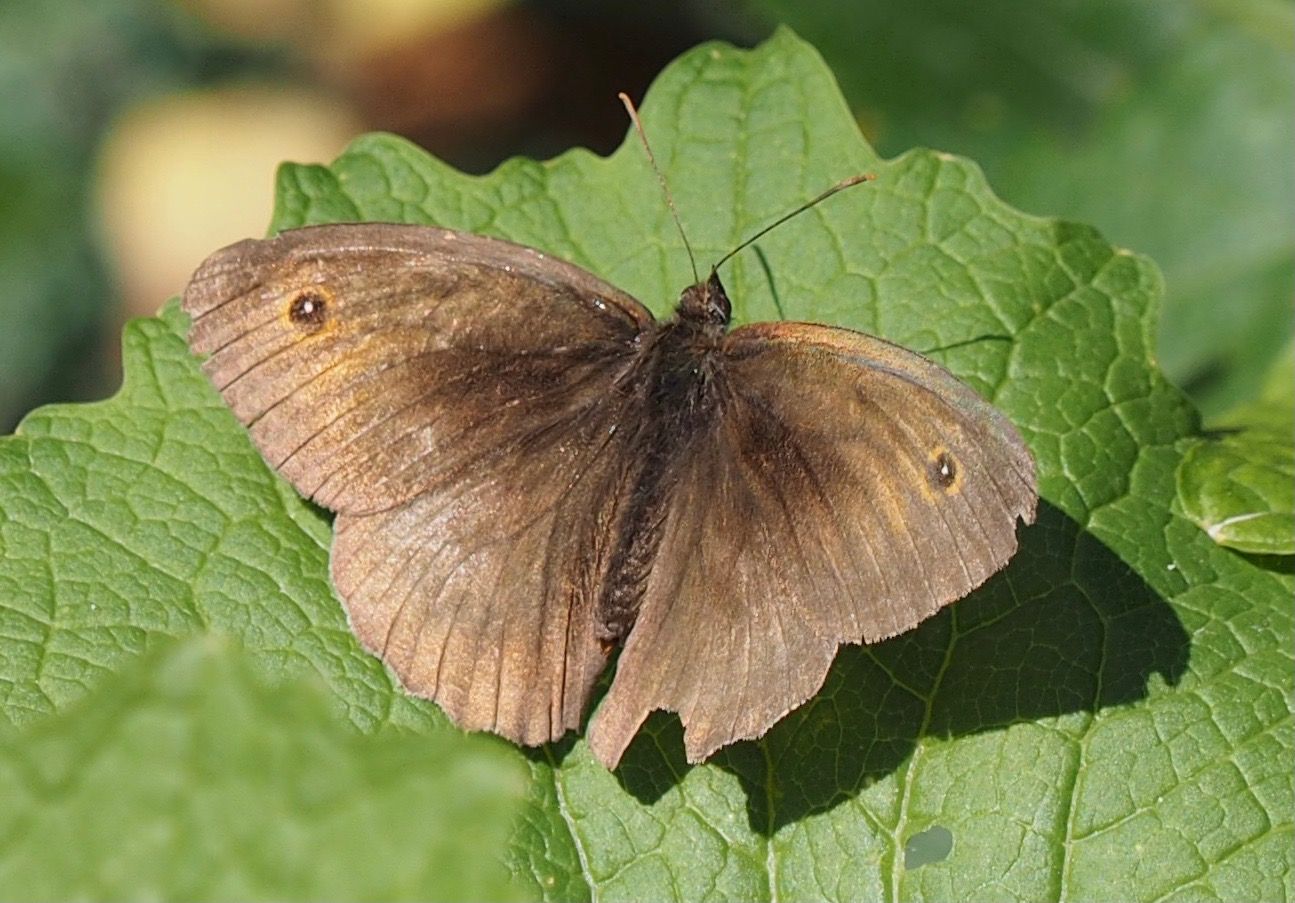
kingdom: Animalia
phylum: Arthropoda
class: Insecta
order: Lepidoptera
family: Nymphalidae
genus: Maniola
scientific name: Maniola jurtina
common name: Græsrandøje
